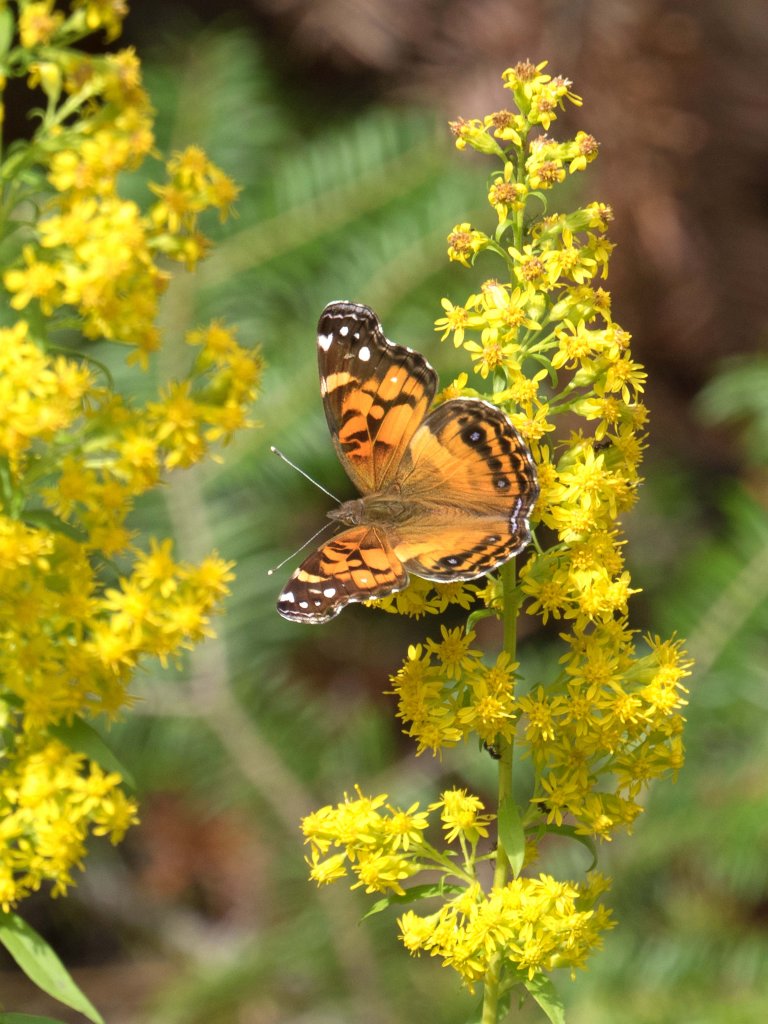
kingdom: Animalia
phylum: Arthropoda
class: Insecta
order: Lepidoptera
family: Nymphalidae
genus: Vanessa
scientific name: Vanessa virginiensis
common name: American Lady
